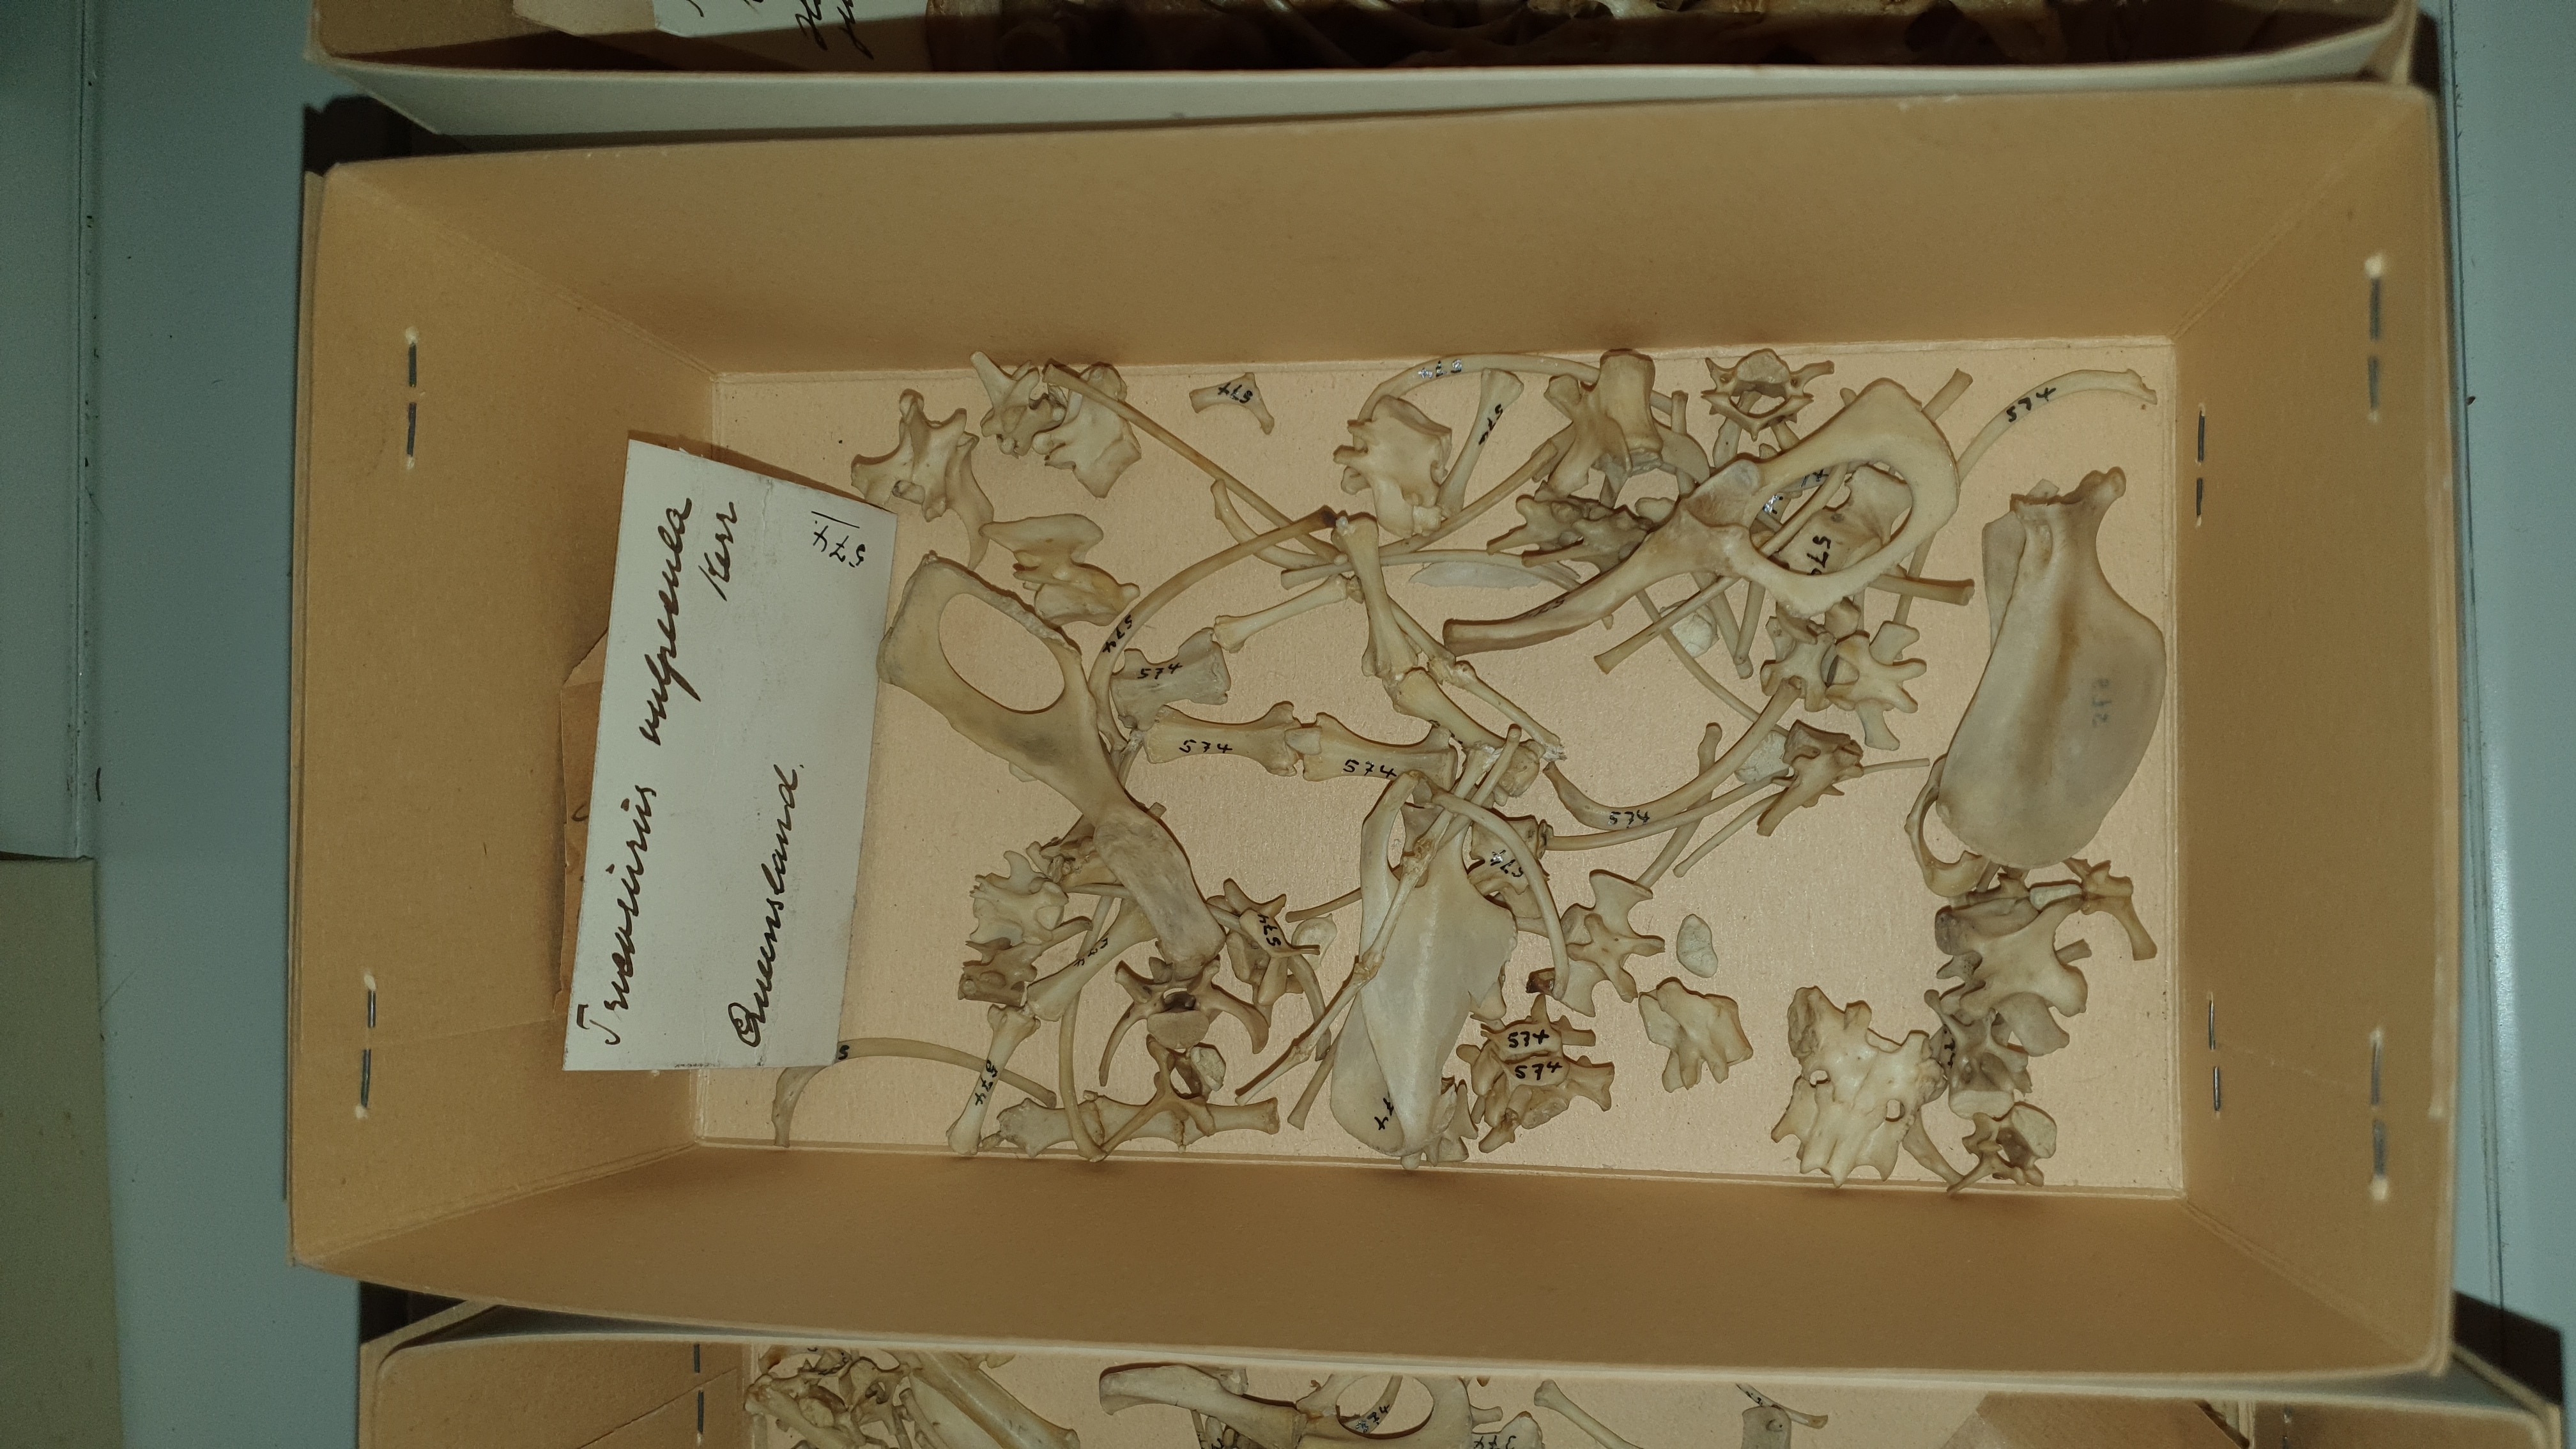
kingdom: Animalia
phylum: Chordata
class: Mammalia
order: Diprotodontia
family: Phalangeridae
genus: Trichosurus
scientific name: Trichosurus vulpecula
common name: Common brushtail
